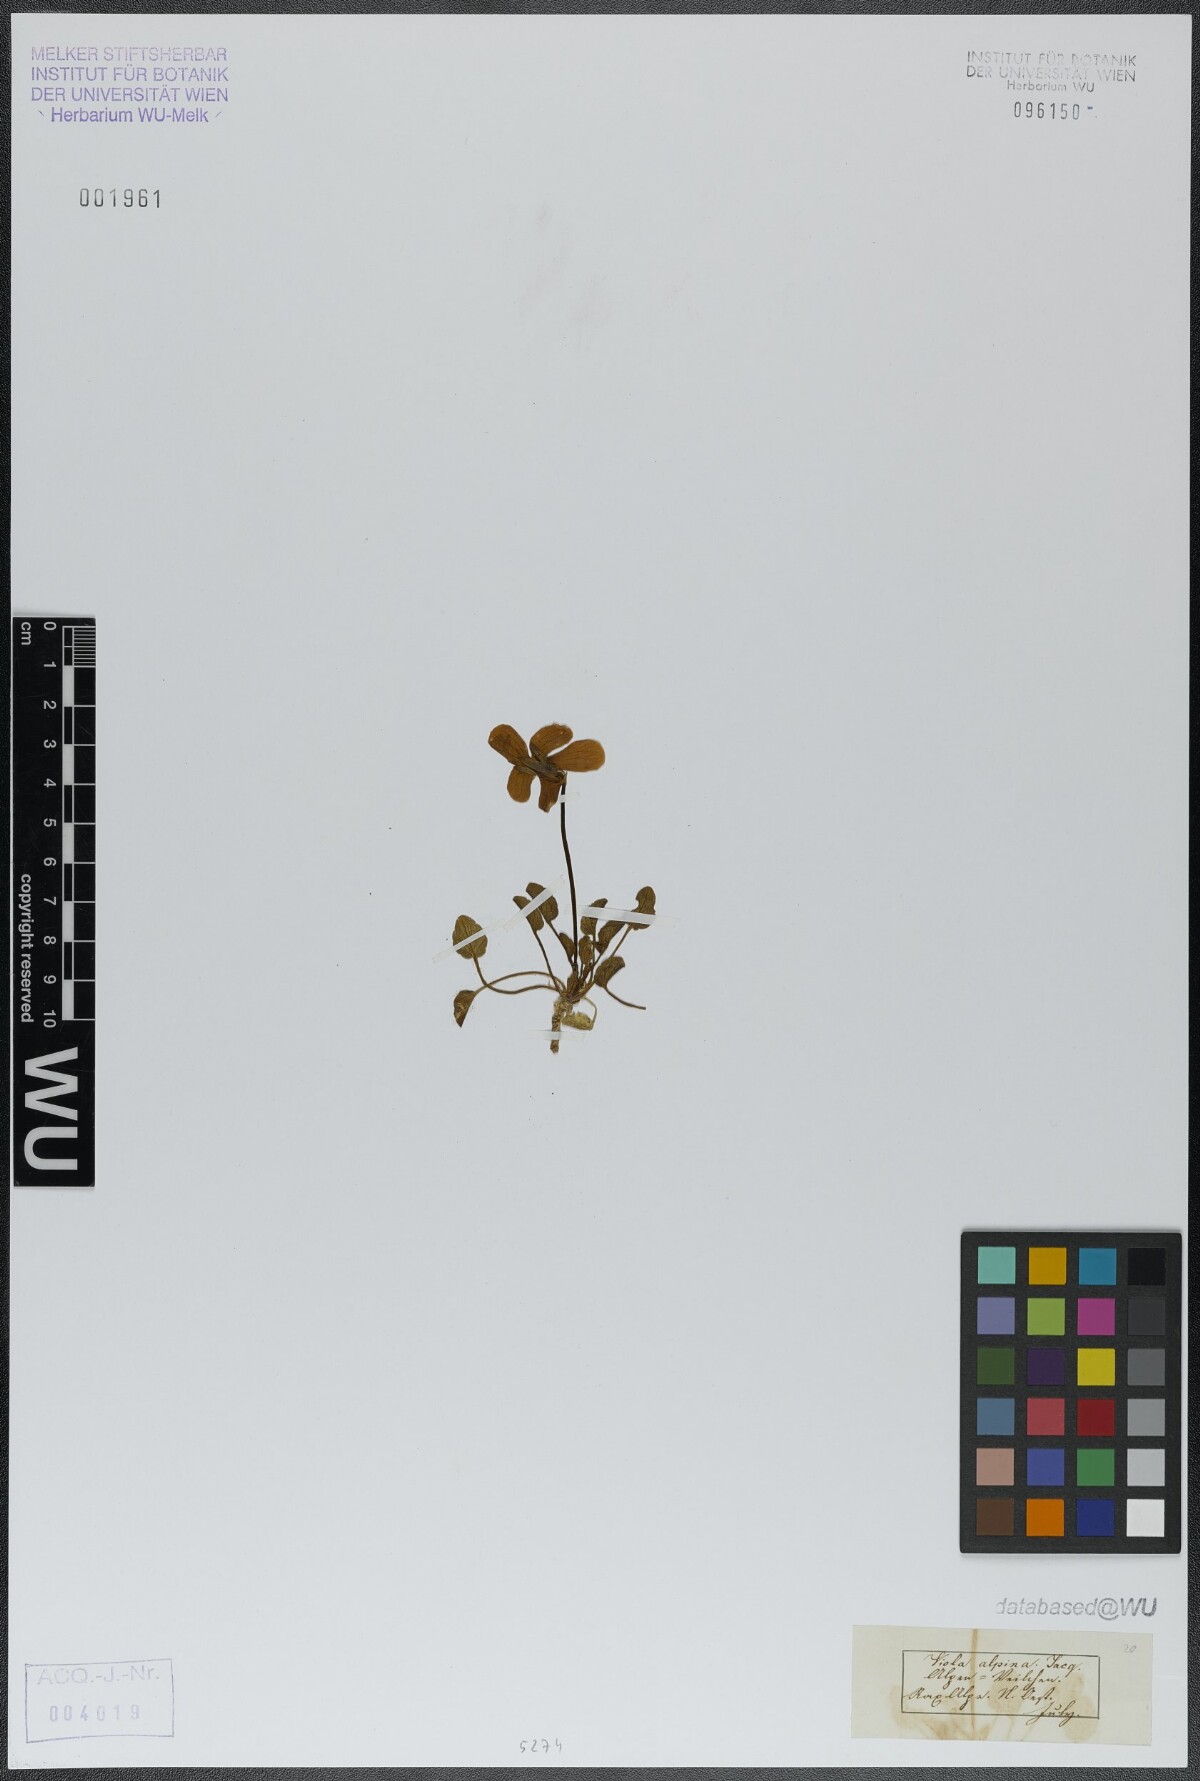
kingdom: Plantae
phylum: Tracheophyta
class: Magnoliopsida
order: Malpighiales
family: Violaceae
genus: Viola
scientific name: Viola alpina
